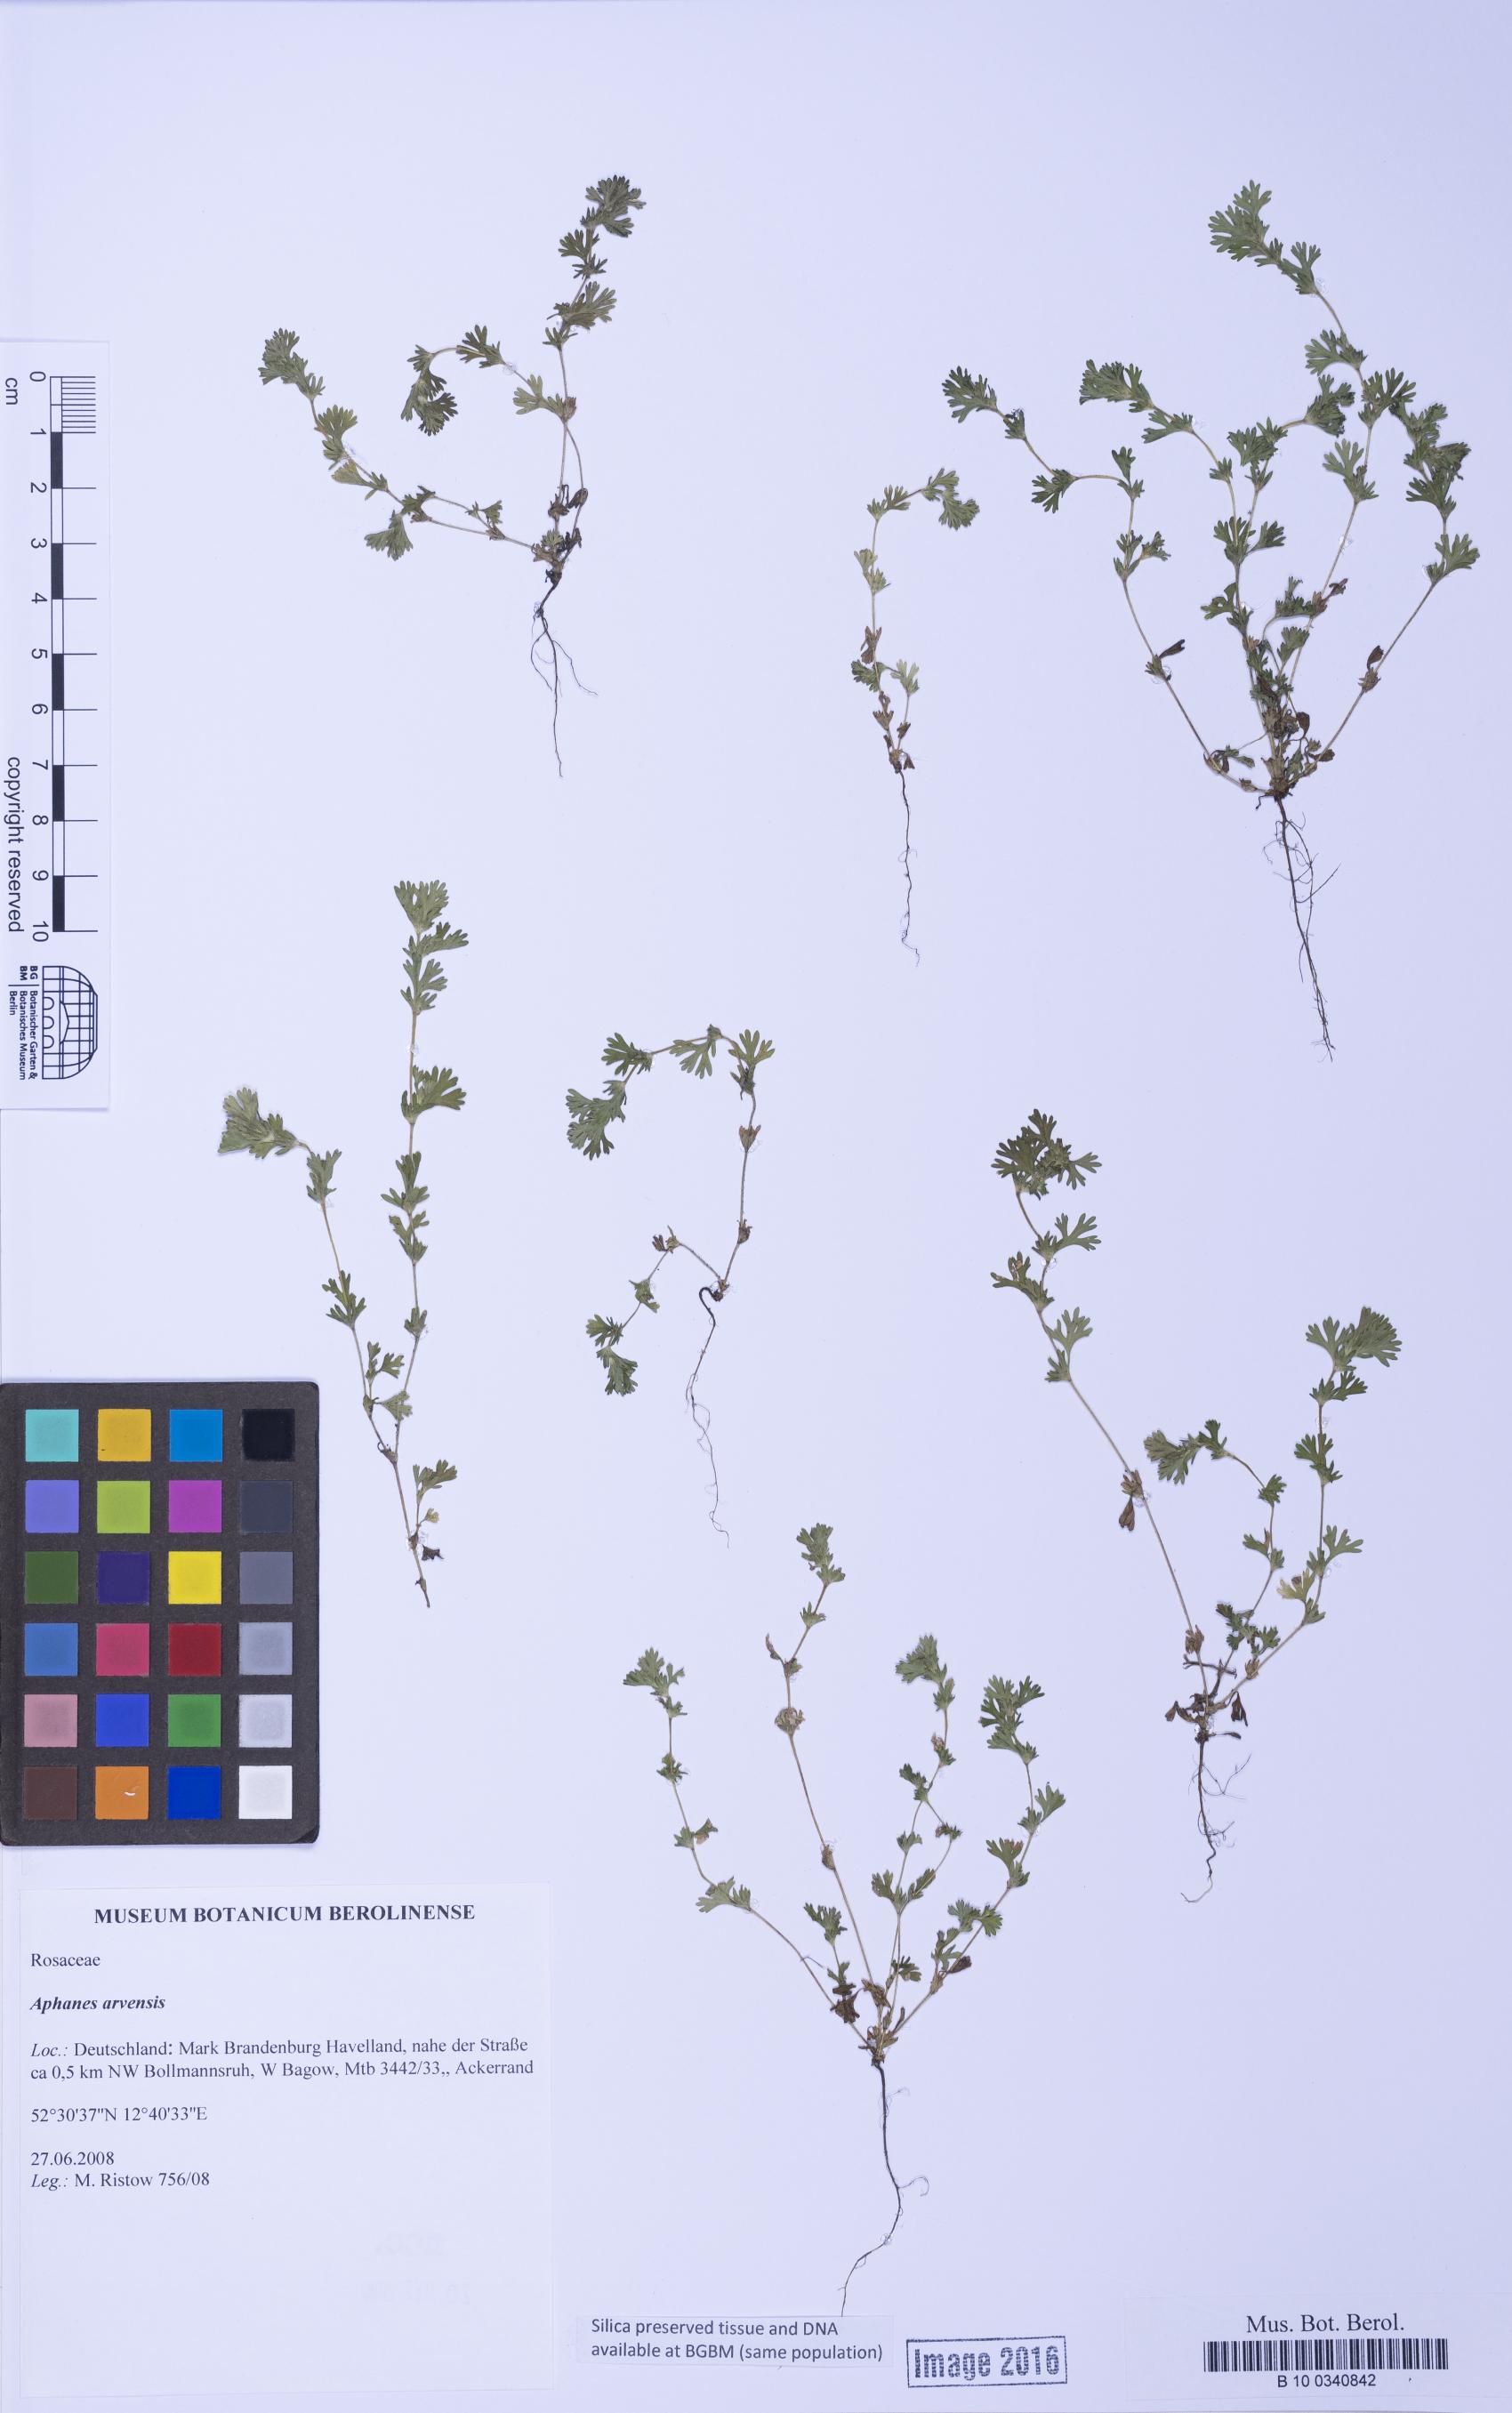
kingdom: Plantae
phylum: Tracheophyta
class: Magnoliopsida
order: Rosales
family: Rosaceae
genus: Aphanes
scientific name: Aphanes arvensis
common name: Parsley-piert
